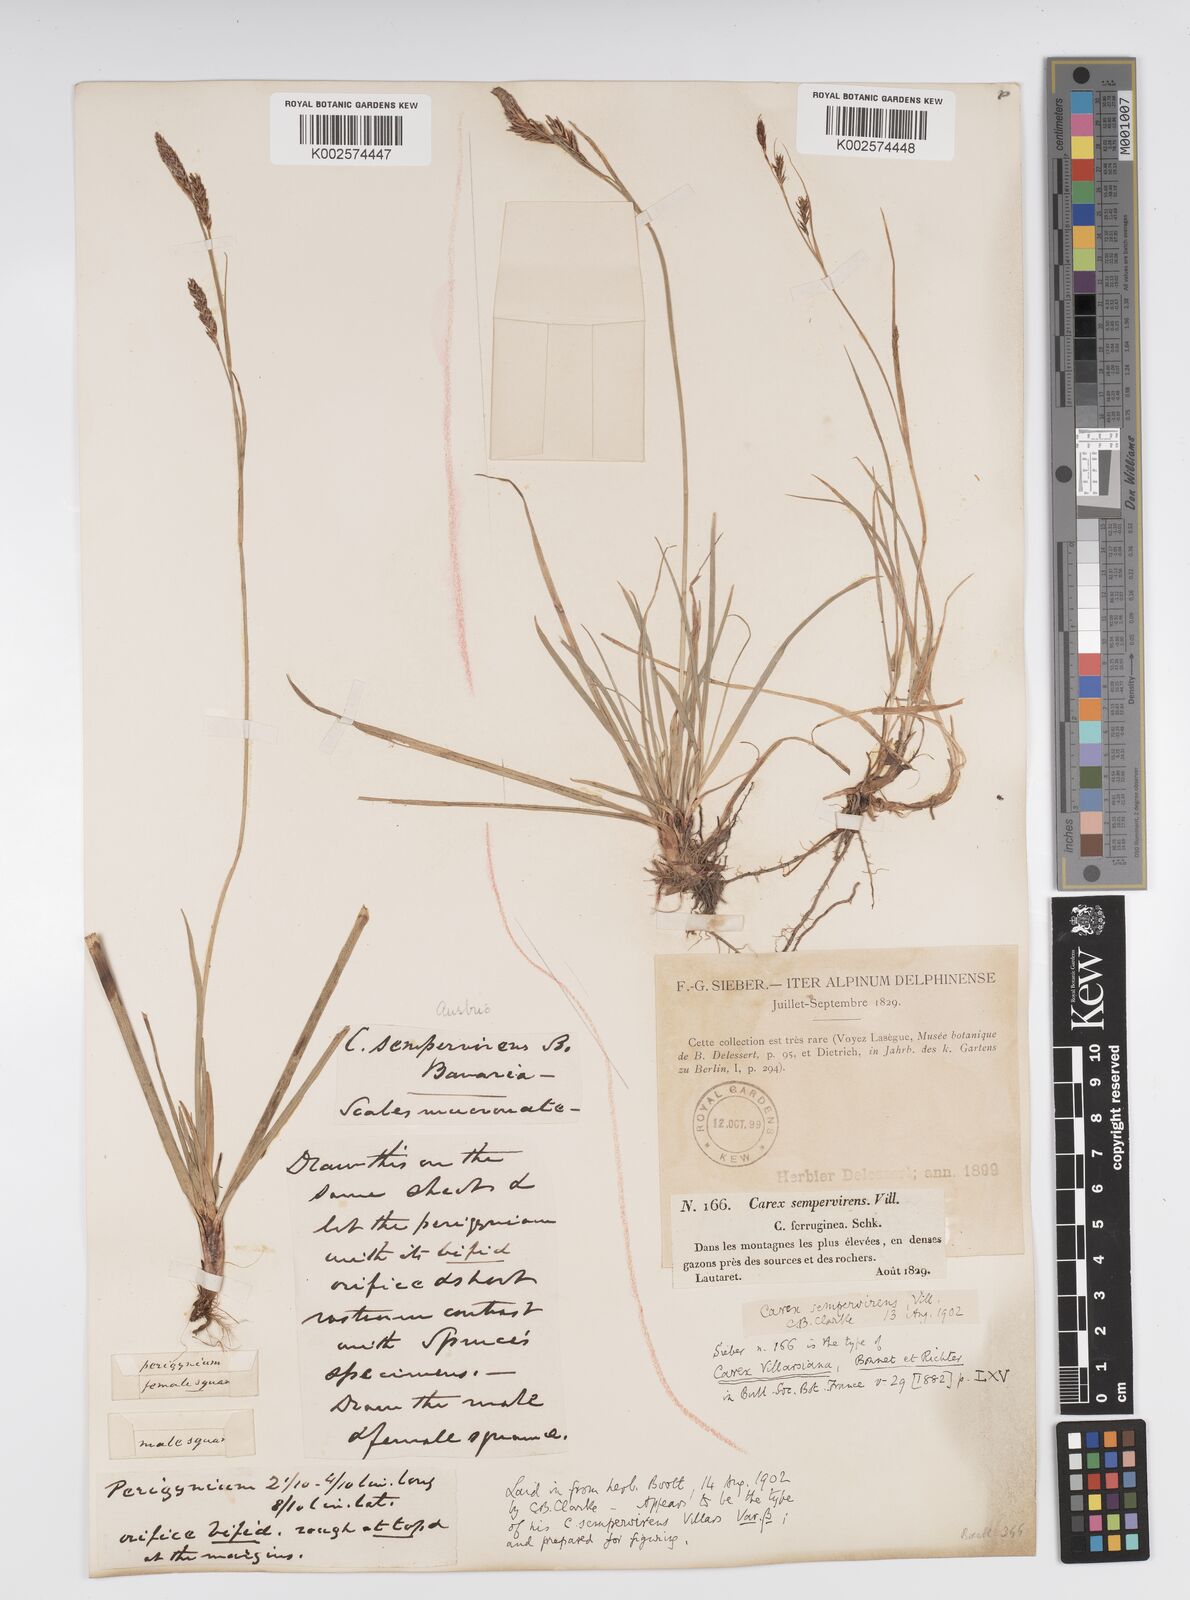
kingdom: Plantae
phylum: Tracheophyta
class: Liliopsida
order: Poales
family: Cyperaceae
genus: Carex
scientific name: Carex sempervirens
